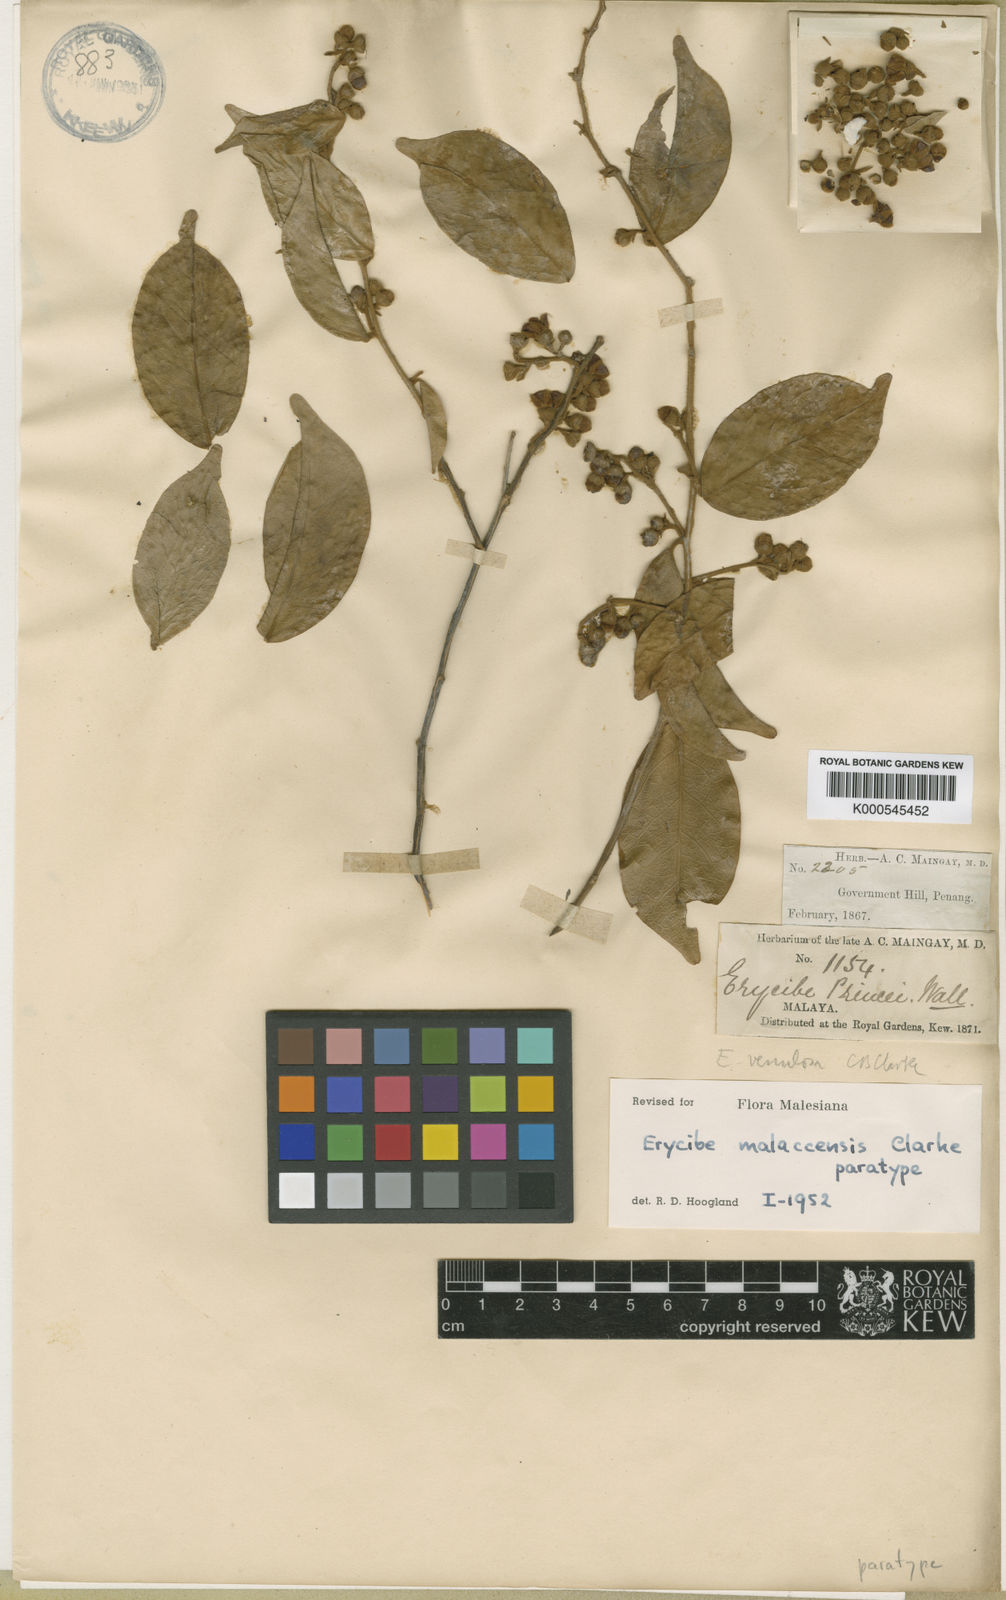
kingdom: Plantae
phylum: Tracheophyta
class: Magnoliopsida
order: Solanales
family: Convolvulaceae
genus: Erycibe
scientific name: Erycibe malaccensis
